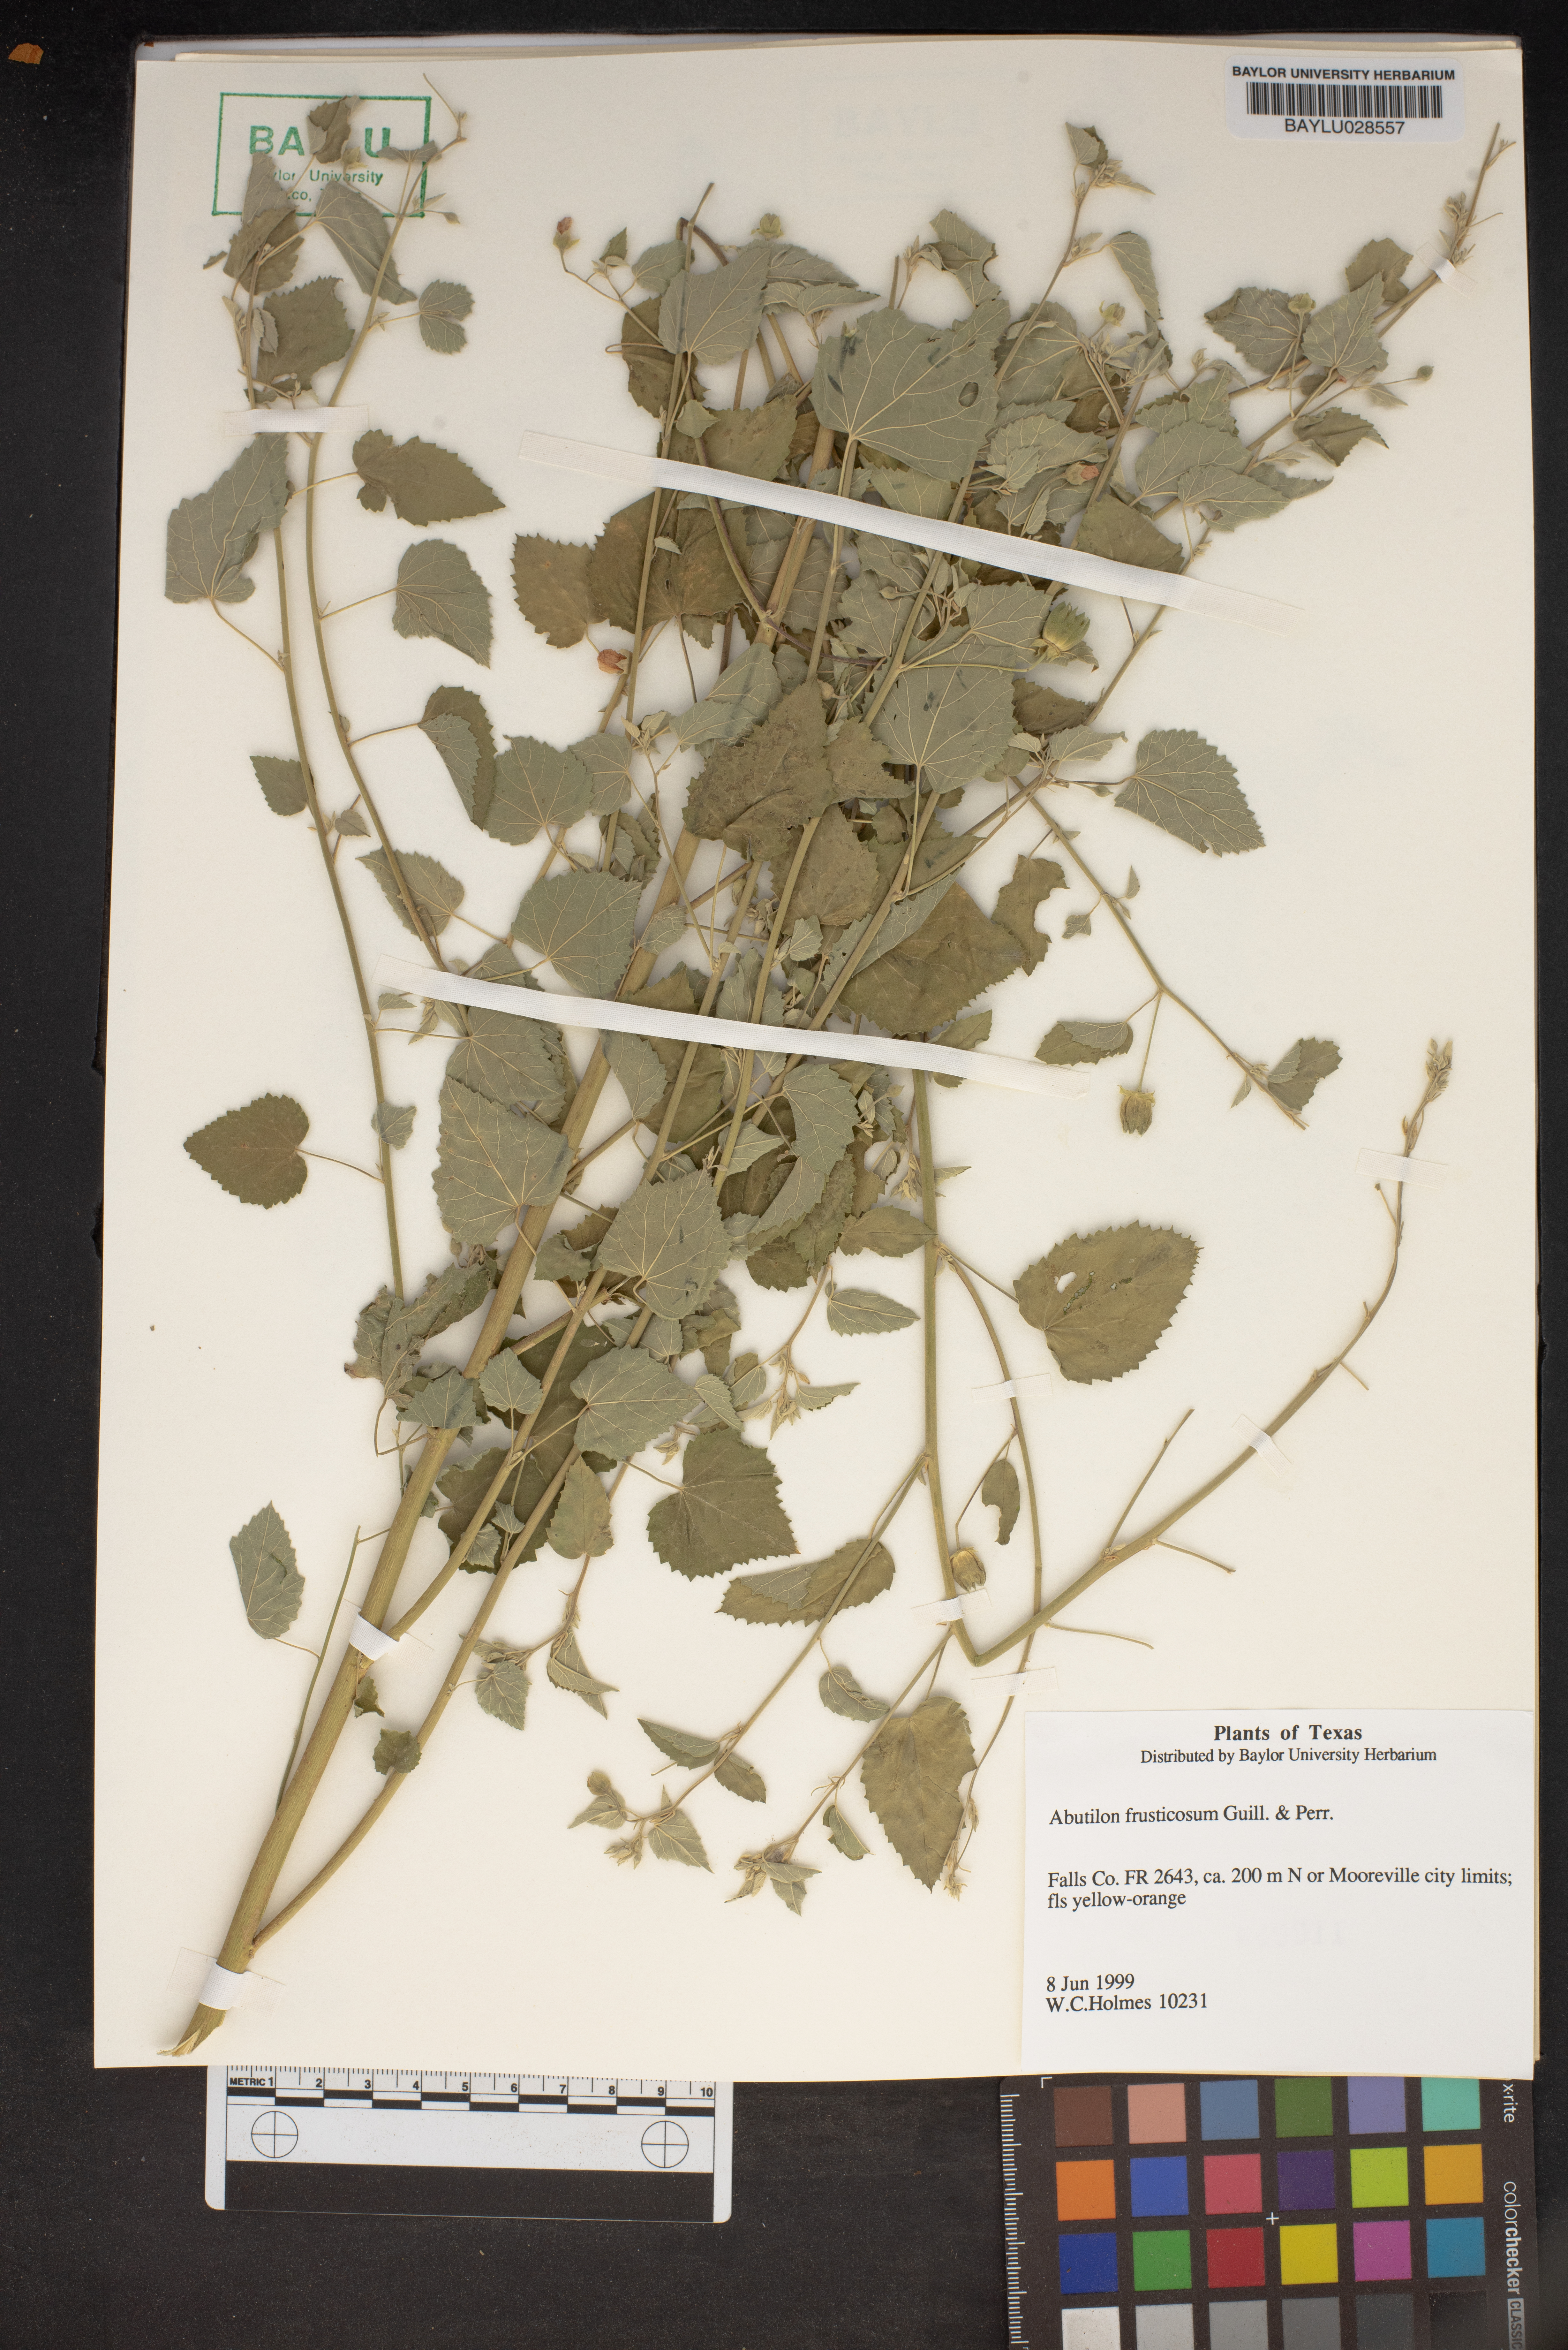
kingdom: Plantae
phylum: Tracheophyta
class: Magnoliopsida
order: Malvales
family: Malvaceae
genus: Abutilon
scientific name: Abutilon fruticosum
